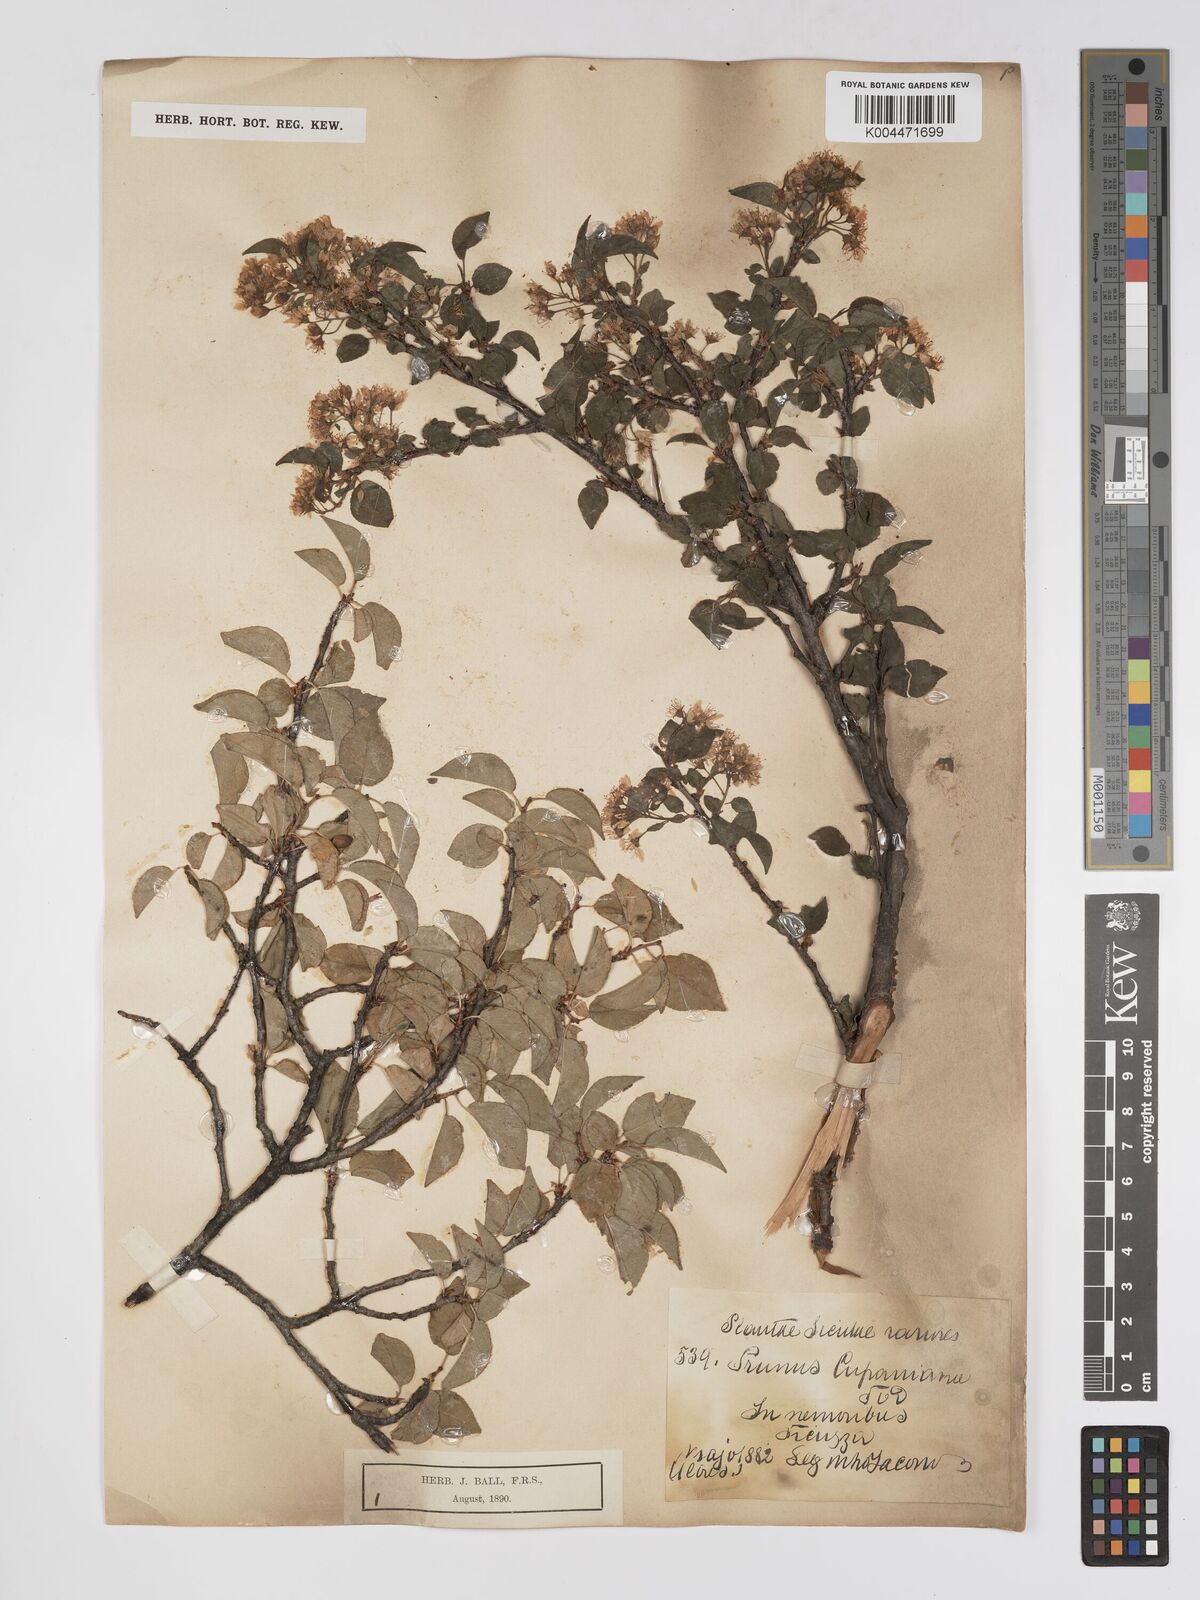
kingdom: Plantae
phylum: Tracheophyta
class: Magnoliopsida
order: Rosales
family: Rosaceae
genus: Prunus
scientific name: Prunus
